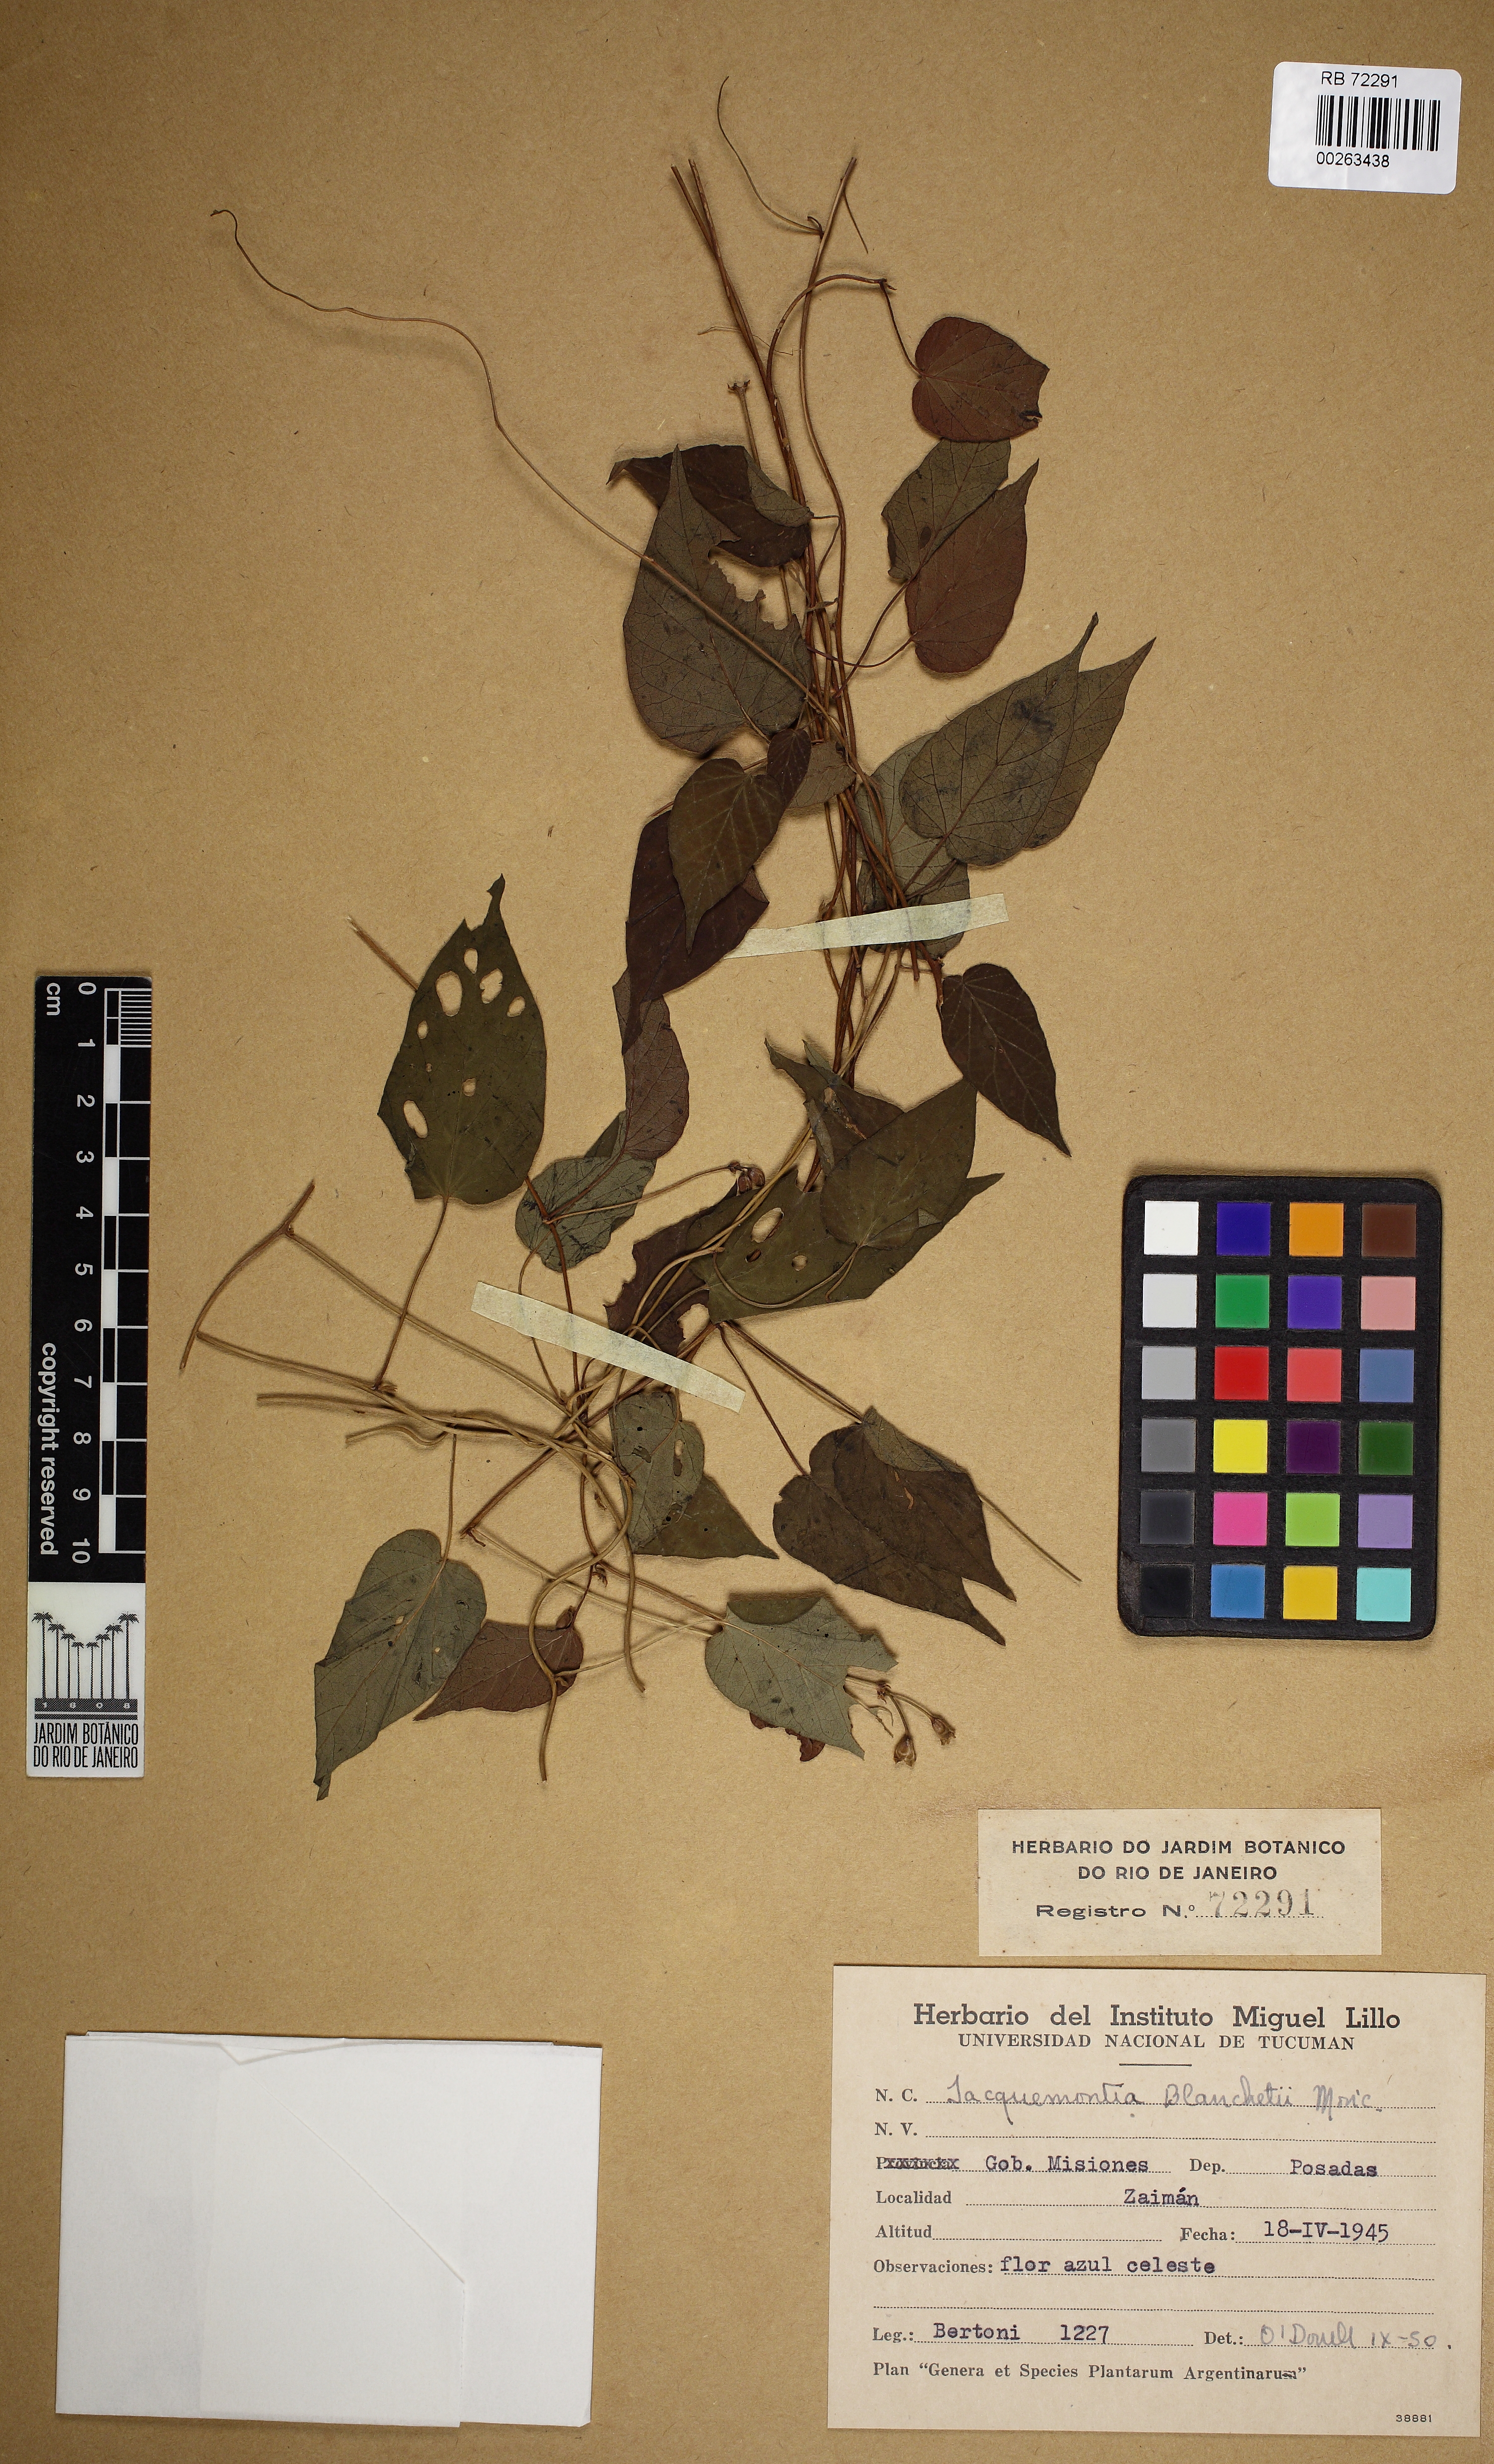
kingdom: Plantae
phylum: Tracheophyta
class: Magnoliopsida
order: Solanales
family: Convolvulaceae
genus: Jacquemontia
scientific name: Jacquemontia blanchetii
